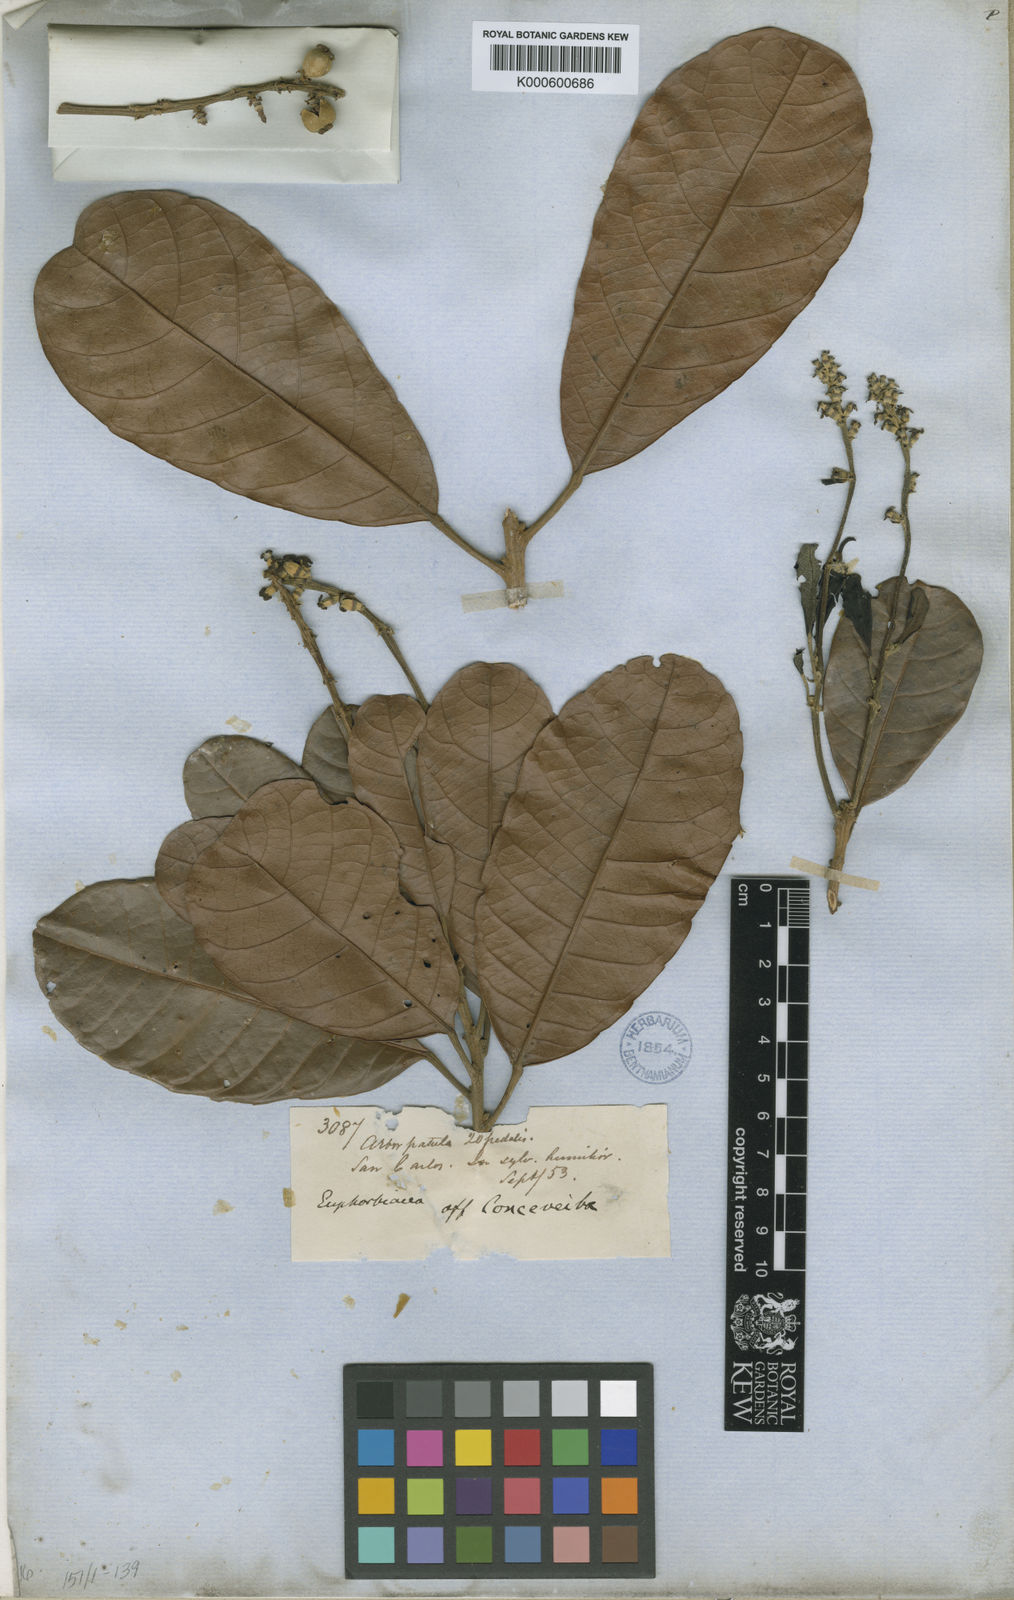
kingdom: Plantae
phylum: Tracheophyta
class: Magnoliopsida
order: Malpighiales
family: Euphorbiaceae
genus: Conceveiba
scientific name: Conceveiba
